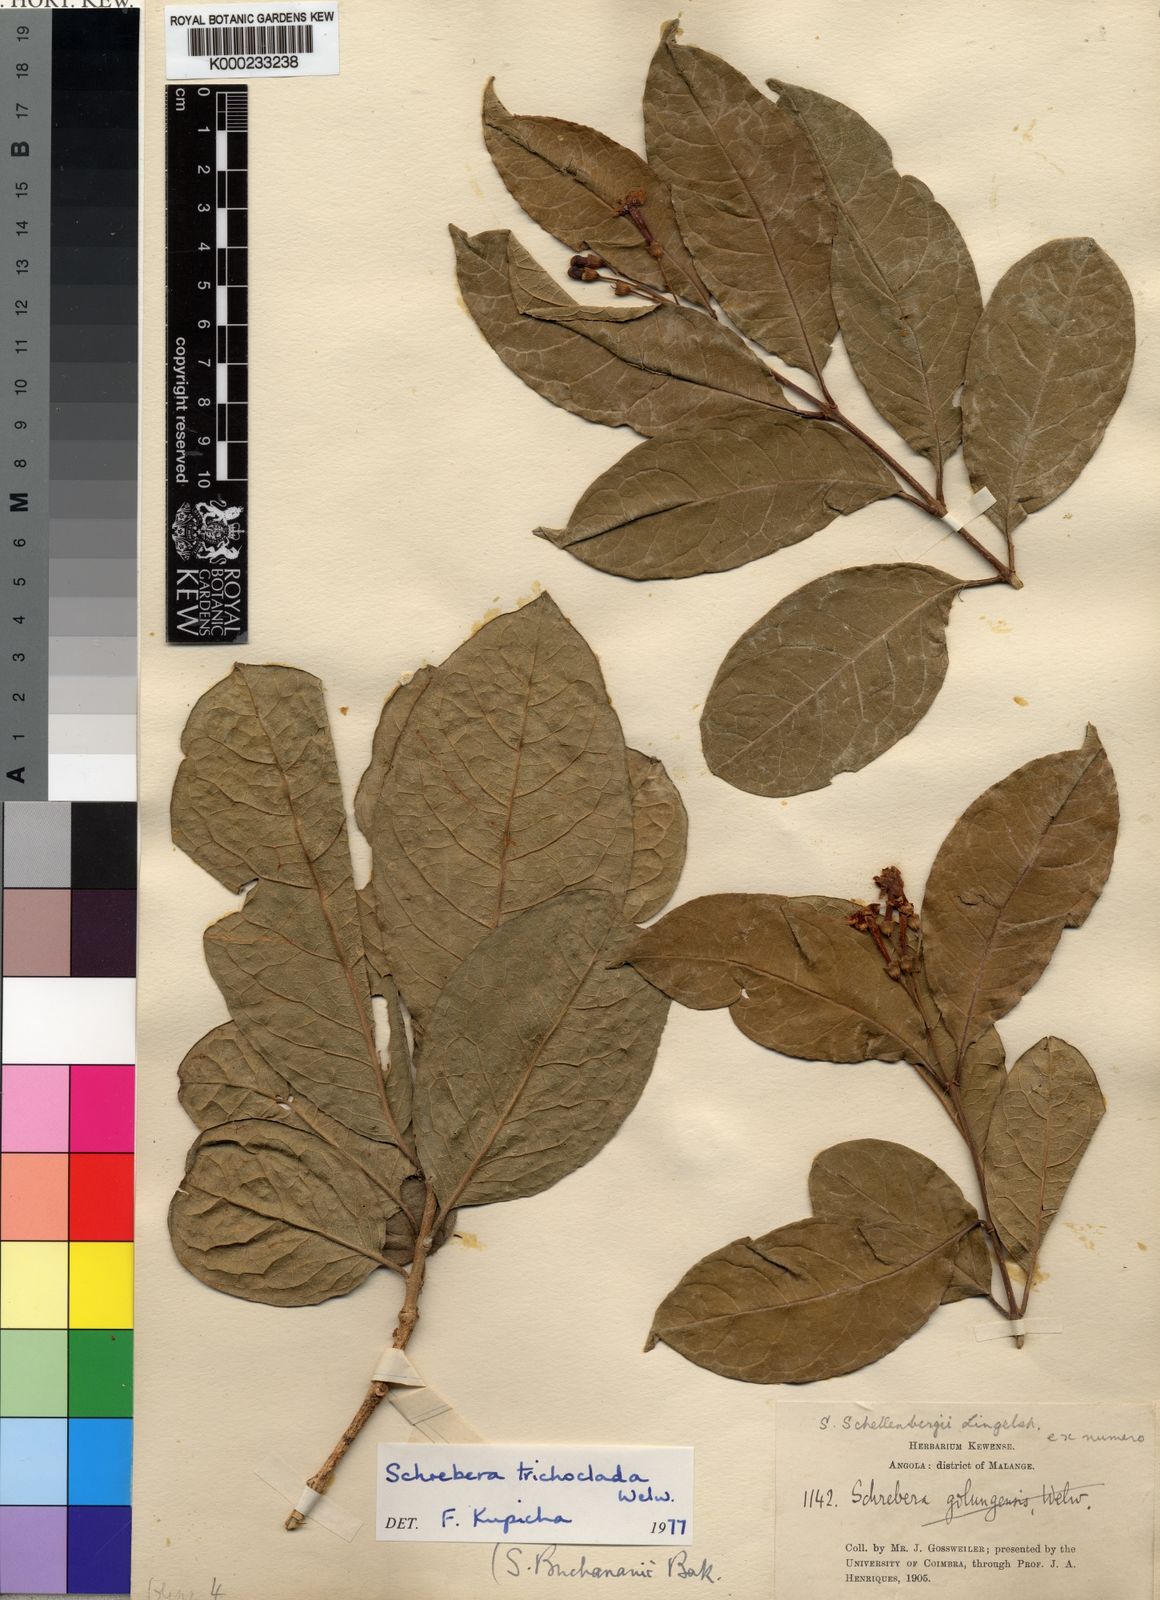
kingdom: Plantae
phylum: Tracheophyta
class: Magnoliopsida
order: Lamiales
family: Oleaceae
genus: Schrebera
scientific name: Schrebera trichoclada
